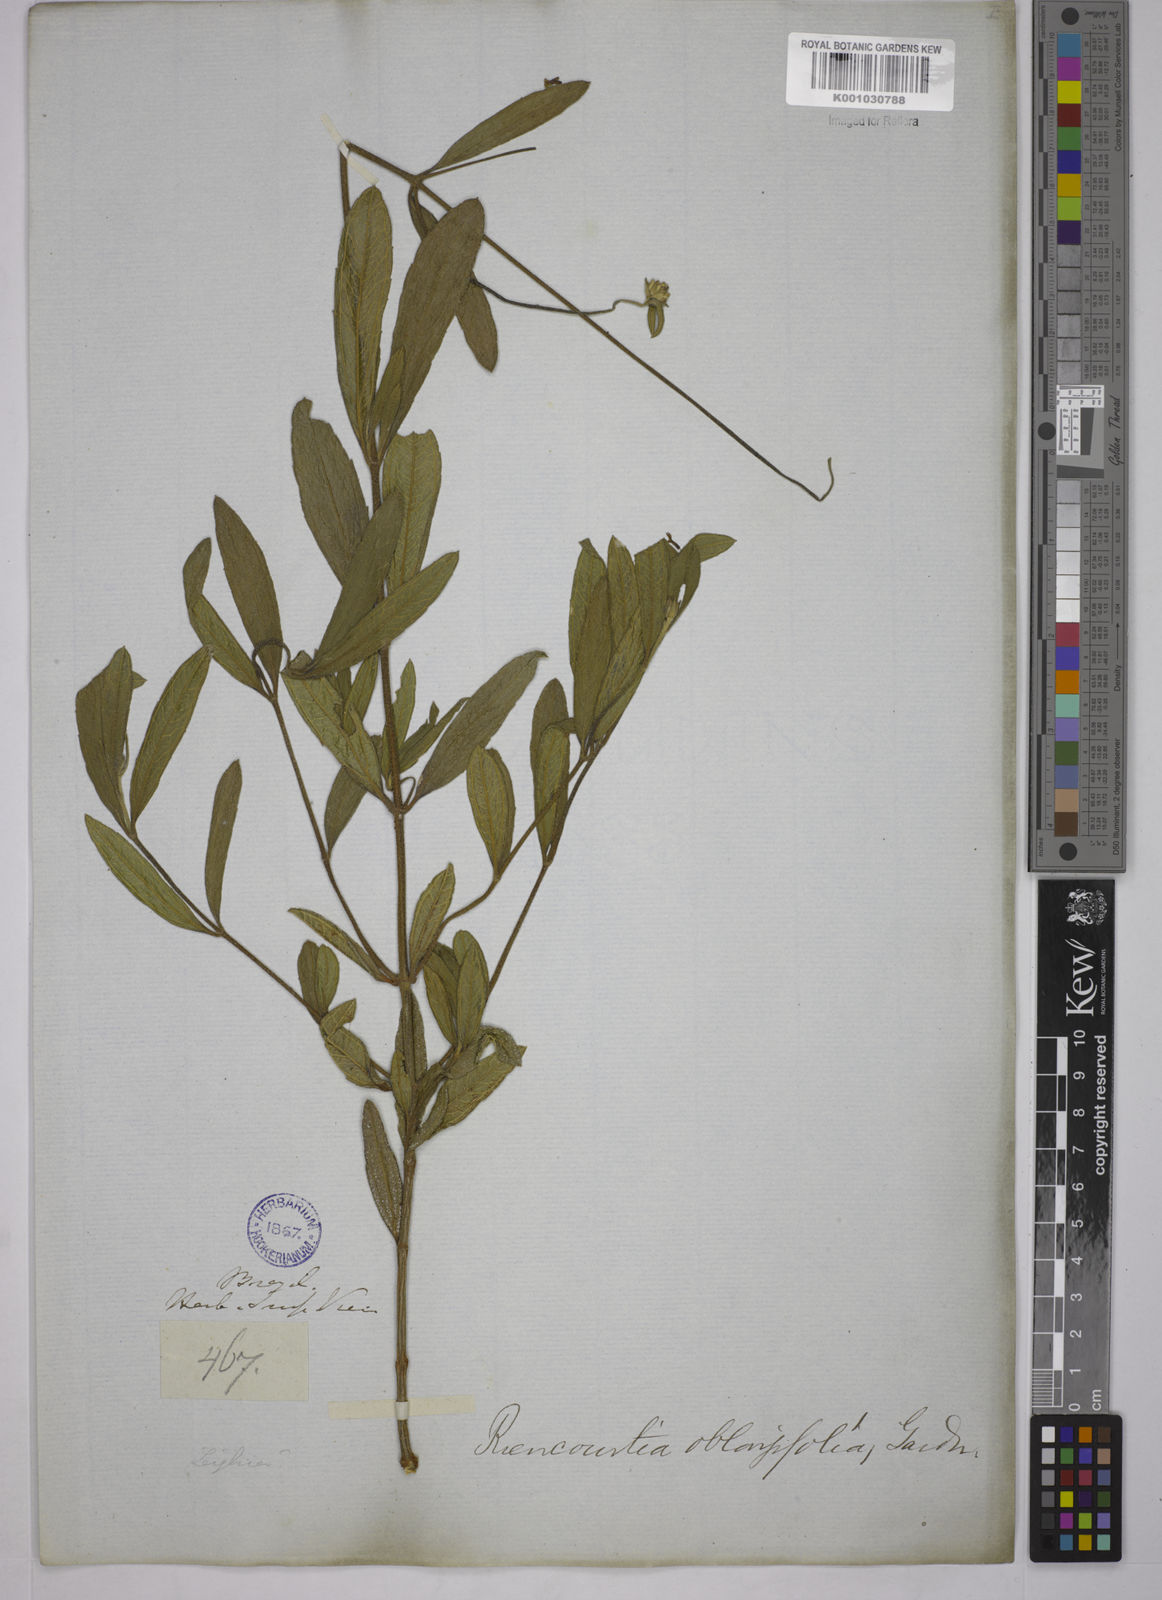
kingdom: Plantae
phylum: Tracheophyta
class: Magnoliopsida
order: Asterales
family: Asteraceae
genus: Riencourtia
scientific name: Riencourtia oblongifolia
